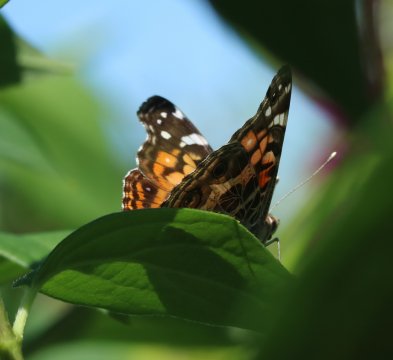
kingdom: Animalia
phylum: Arthropoda
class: Insecta
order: Lepidoptera
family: Nymphalidae
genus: Vanessa
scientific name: Vanessa virginiensis
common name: American Lady
